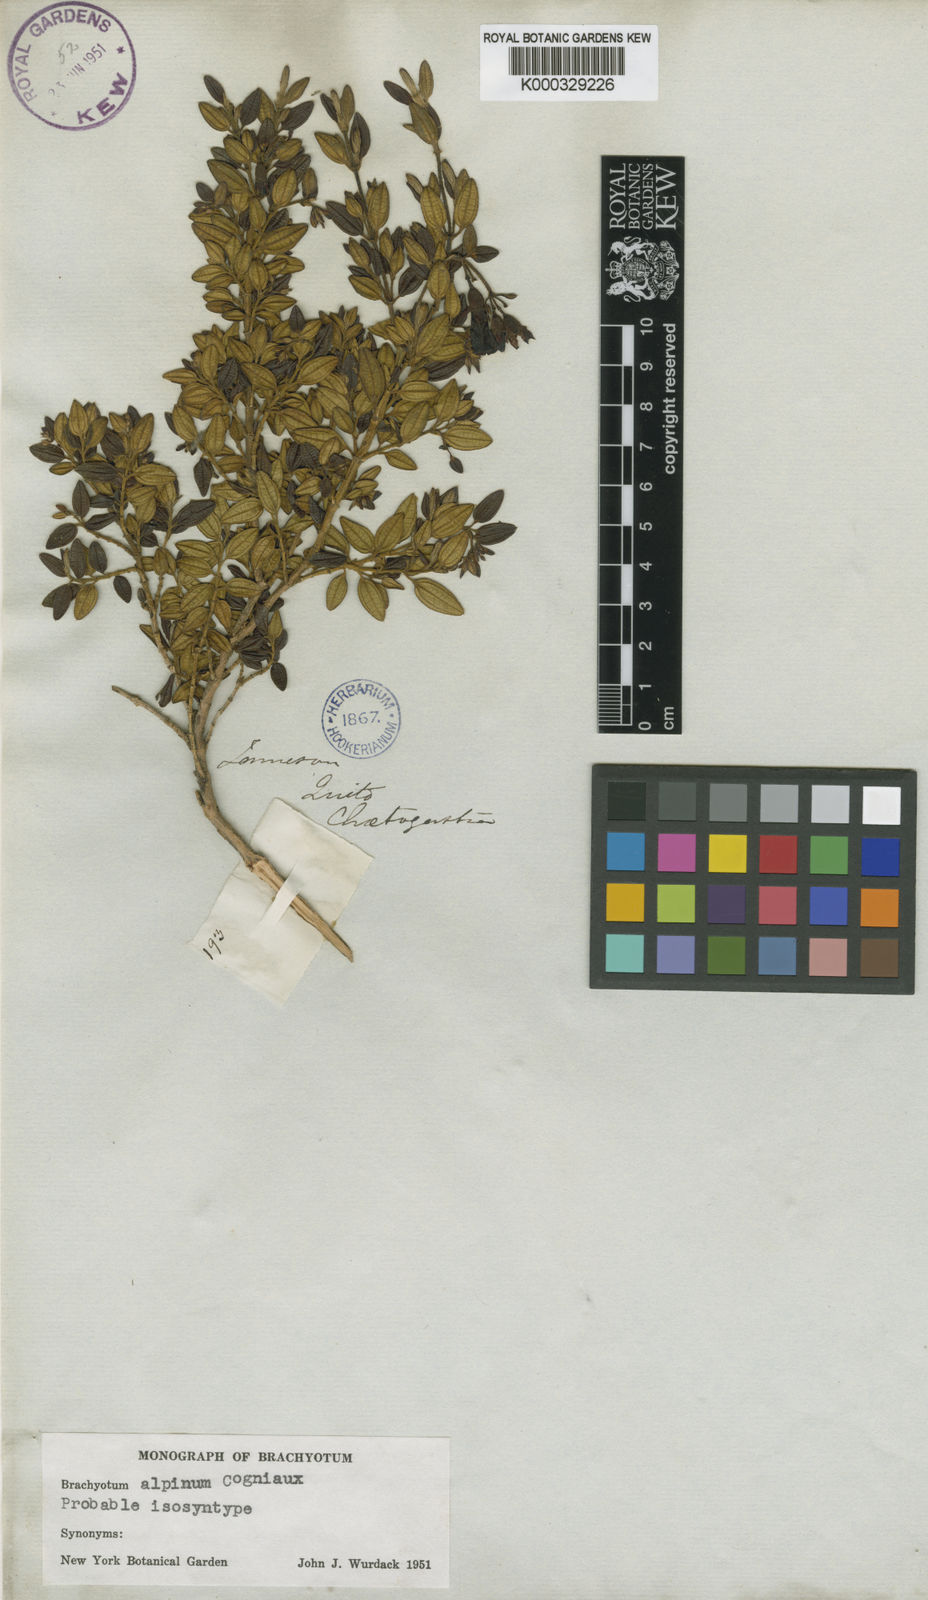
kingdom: Plantae
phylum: Tracheophyta
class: Magnoliopsida
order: Myrtales
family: Melastomataceae
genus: Brachyotum
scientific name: Brachyotum alpinum
